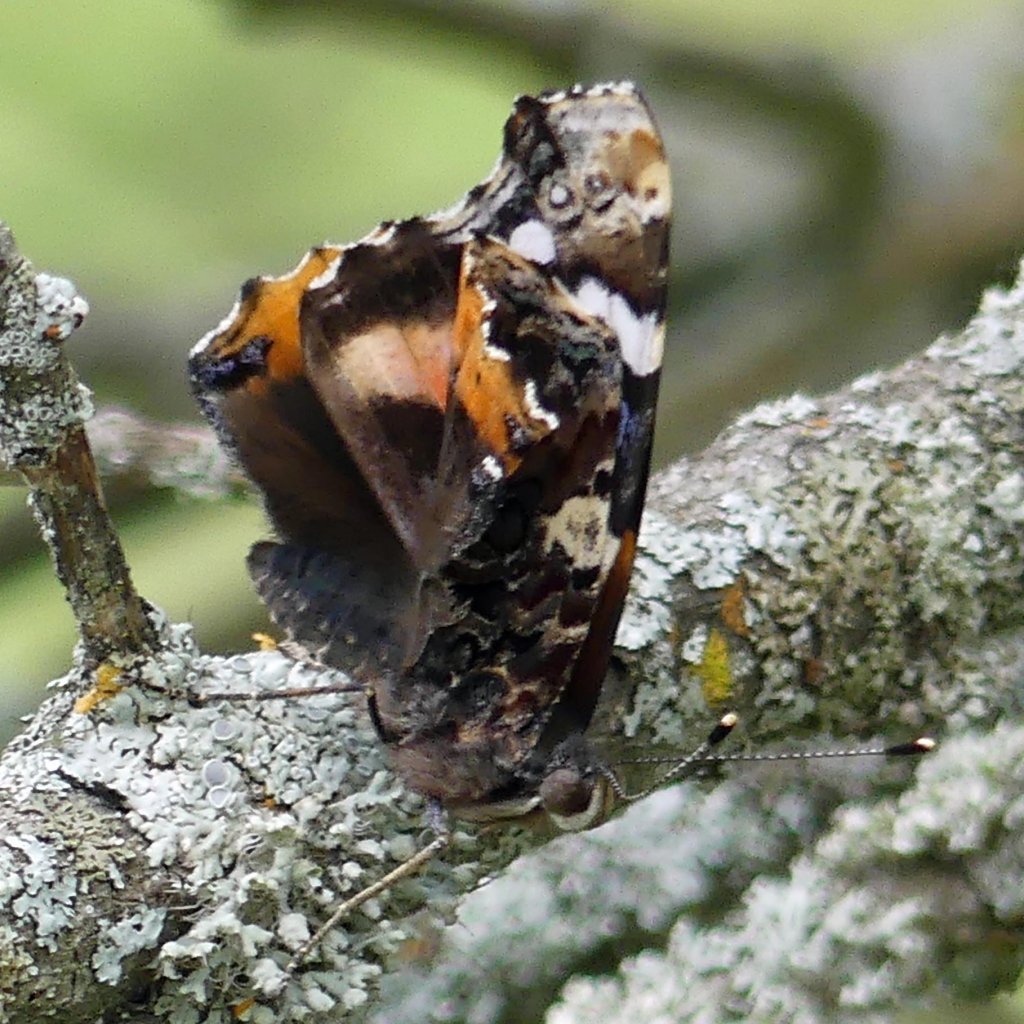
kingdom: Animalia
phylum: Arthropoda
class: Insecta
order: Lepidoptera
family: Nymphalidae
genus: Vanessa
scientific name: Vanessa atalanta
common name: Red Admiral
